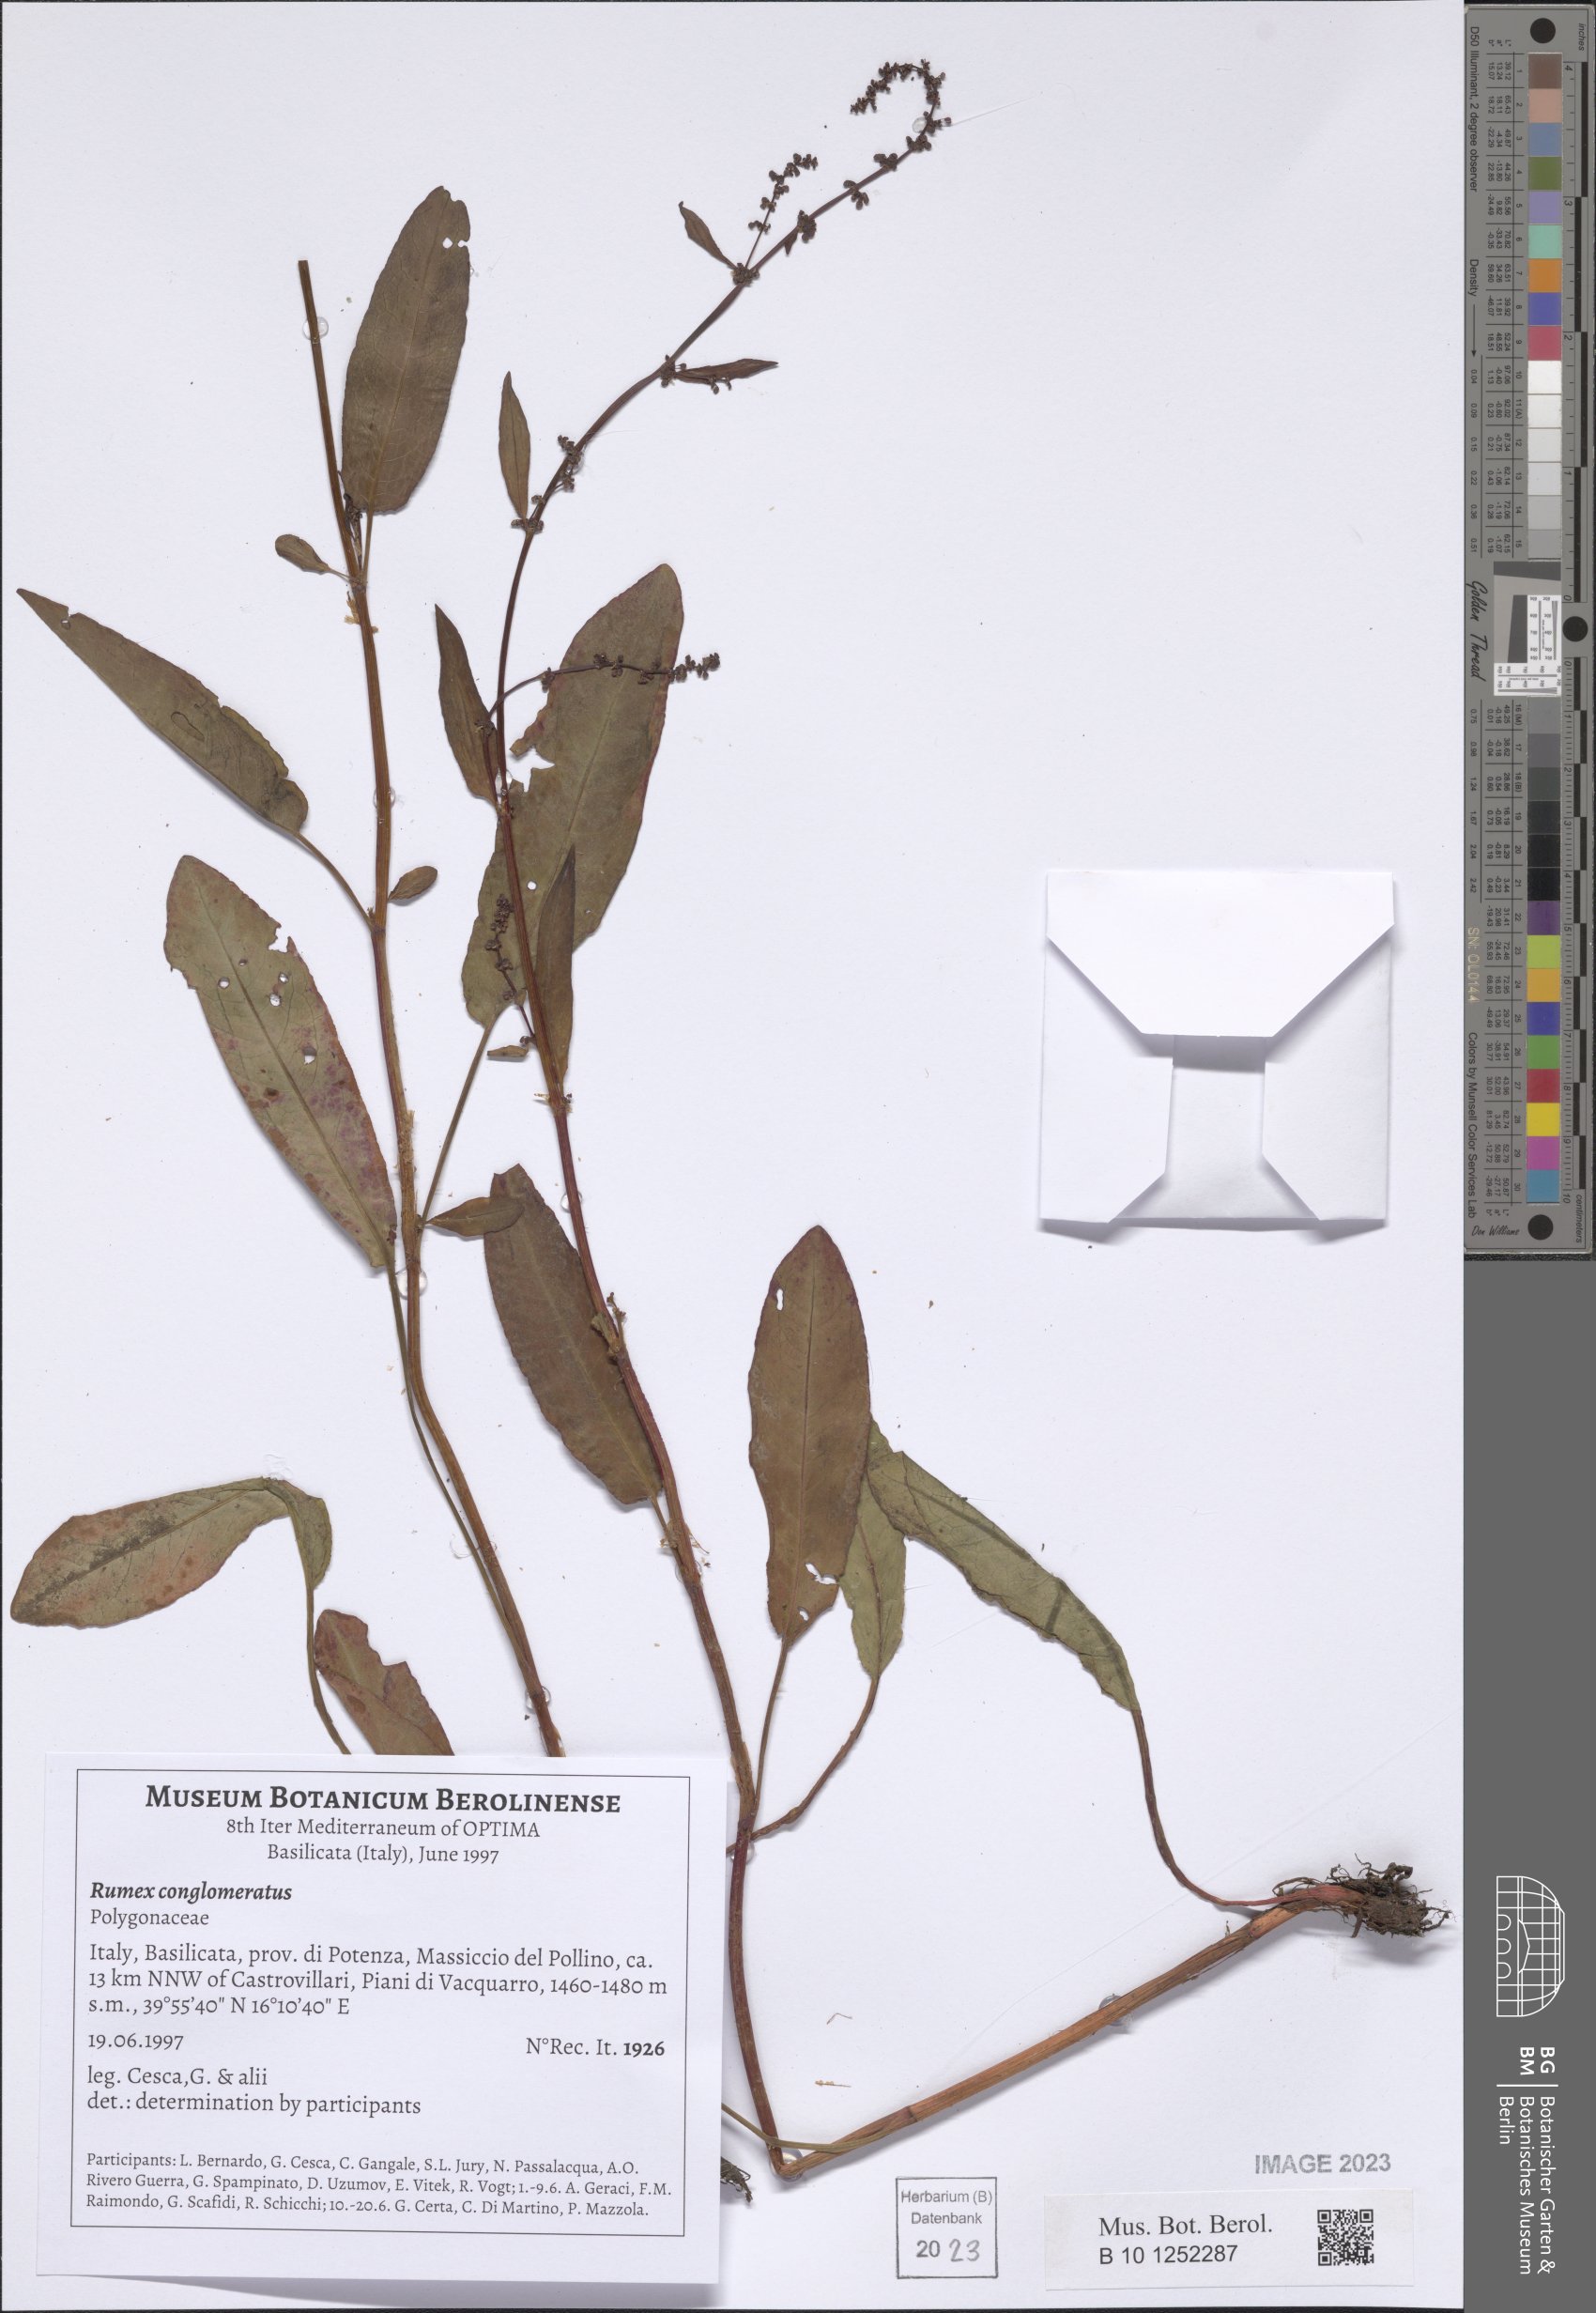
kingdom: Plantae
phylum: Tracheophyta
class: Magnoliopsida
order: Caryophyllales
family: Polygonaceae
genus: Rumex
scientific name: Rumex conglomeratus
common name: Clustered dock
